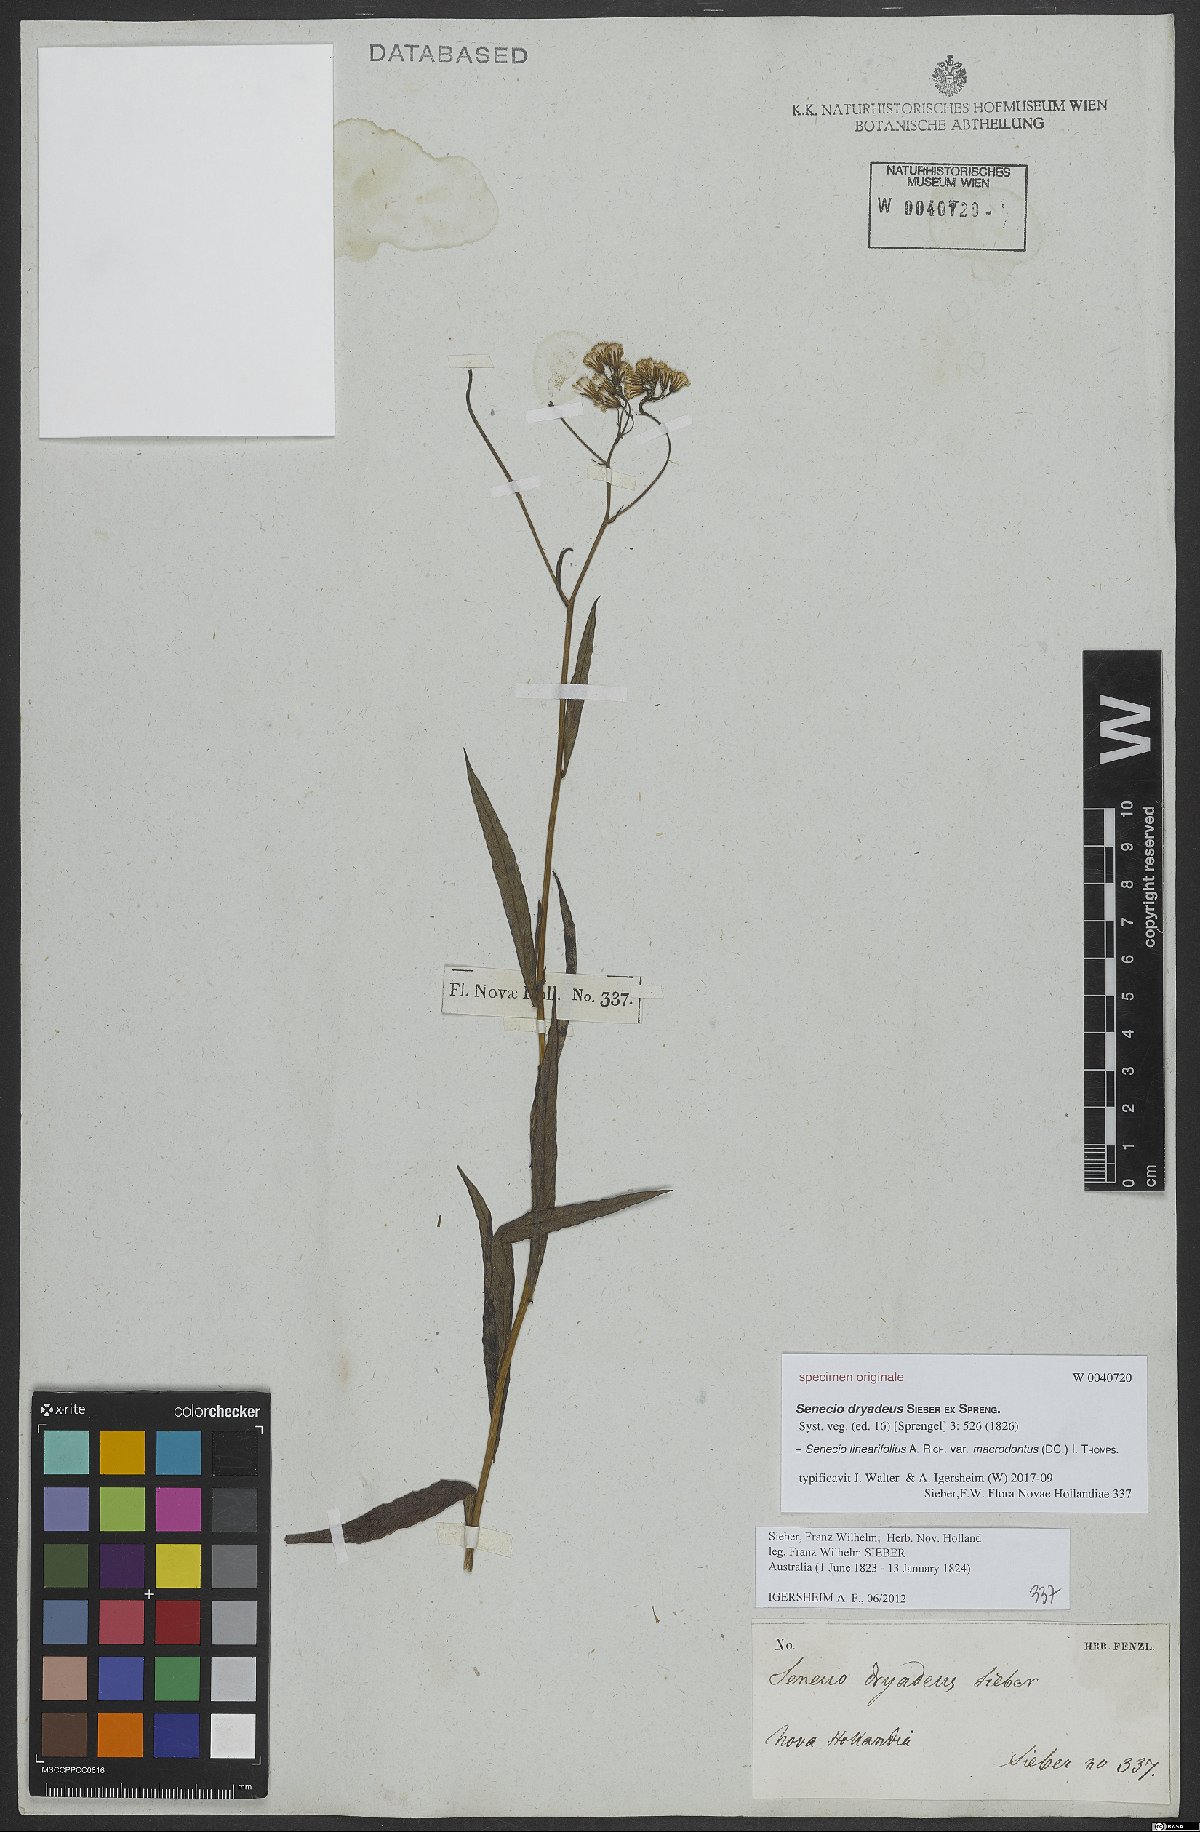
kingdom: Plantae
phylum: Tracheophyta
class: Magnoliopsida
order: Asterales
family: Asteraceae
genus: Senecio
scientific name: Senecio linearifolius
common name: Fireweed groundsel
